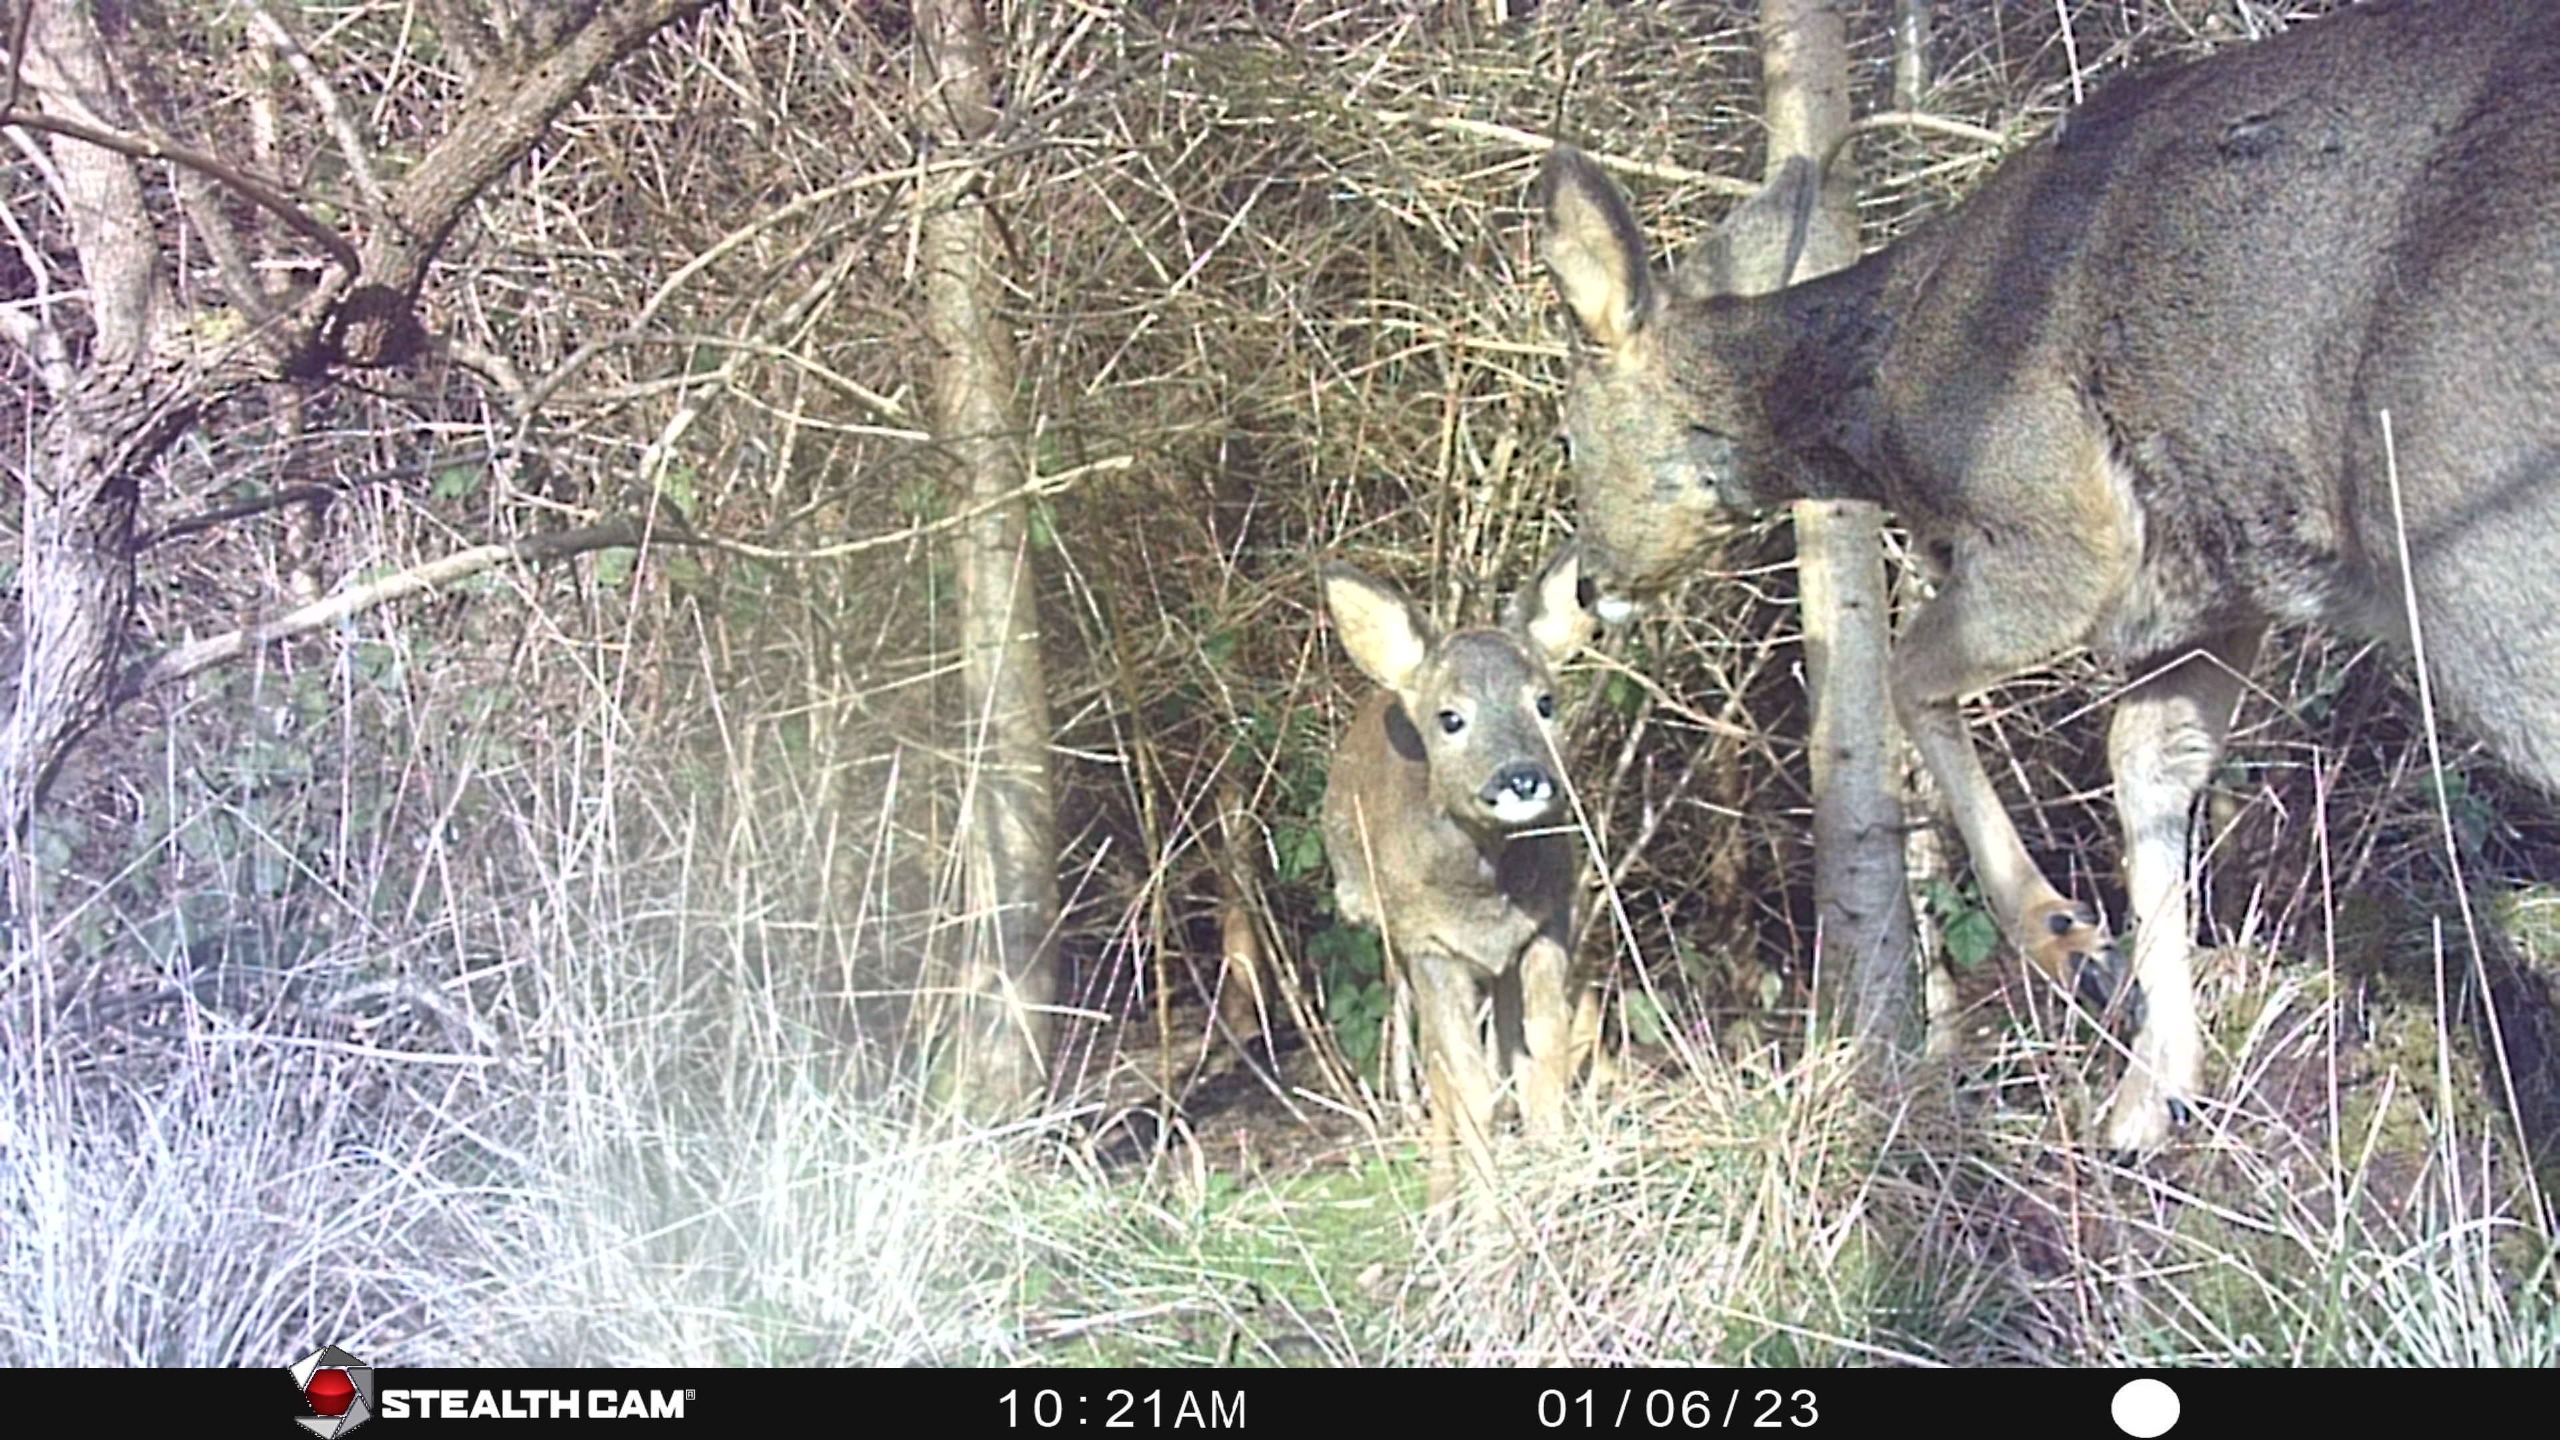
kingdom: Animalia
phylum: Chordata
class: Mammalia
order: Artiodactyla
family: Cervidae
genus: Capreolus
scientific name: Capreolus capreolus
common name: Rådyr
